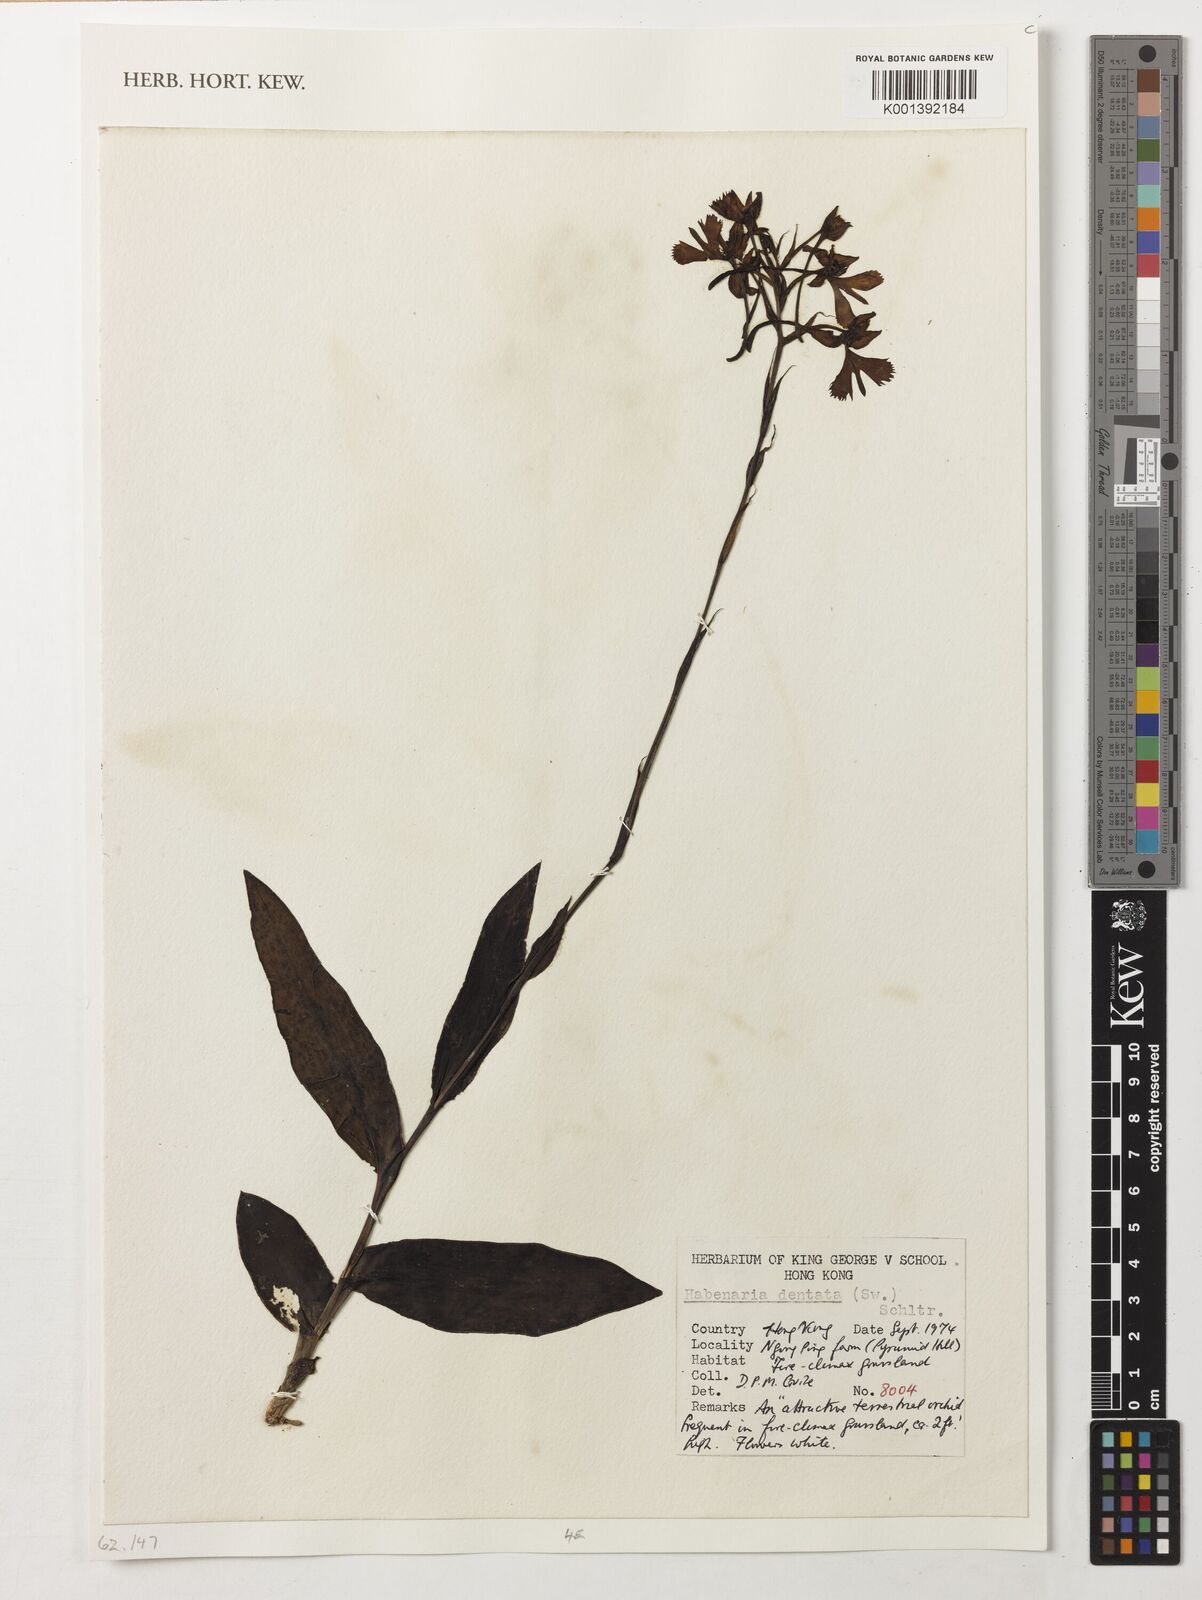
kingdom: Plantae
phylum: Tracheophyta
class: Liliopsida
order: Asparagales
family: Orchidaceae
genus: Habenaria
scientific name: Habenaria dentata
